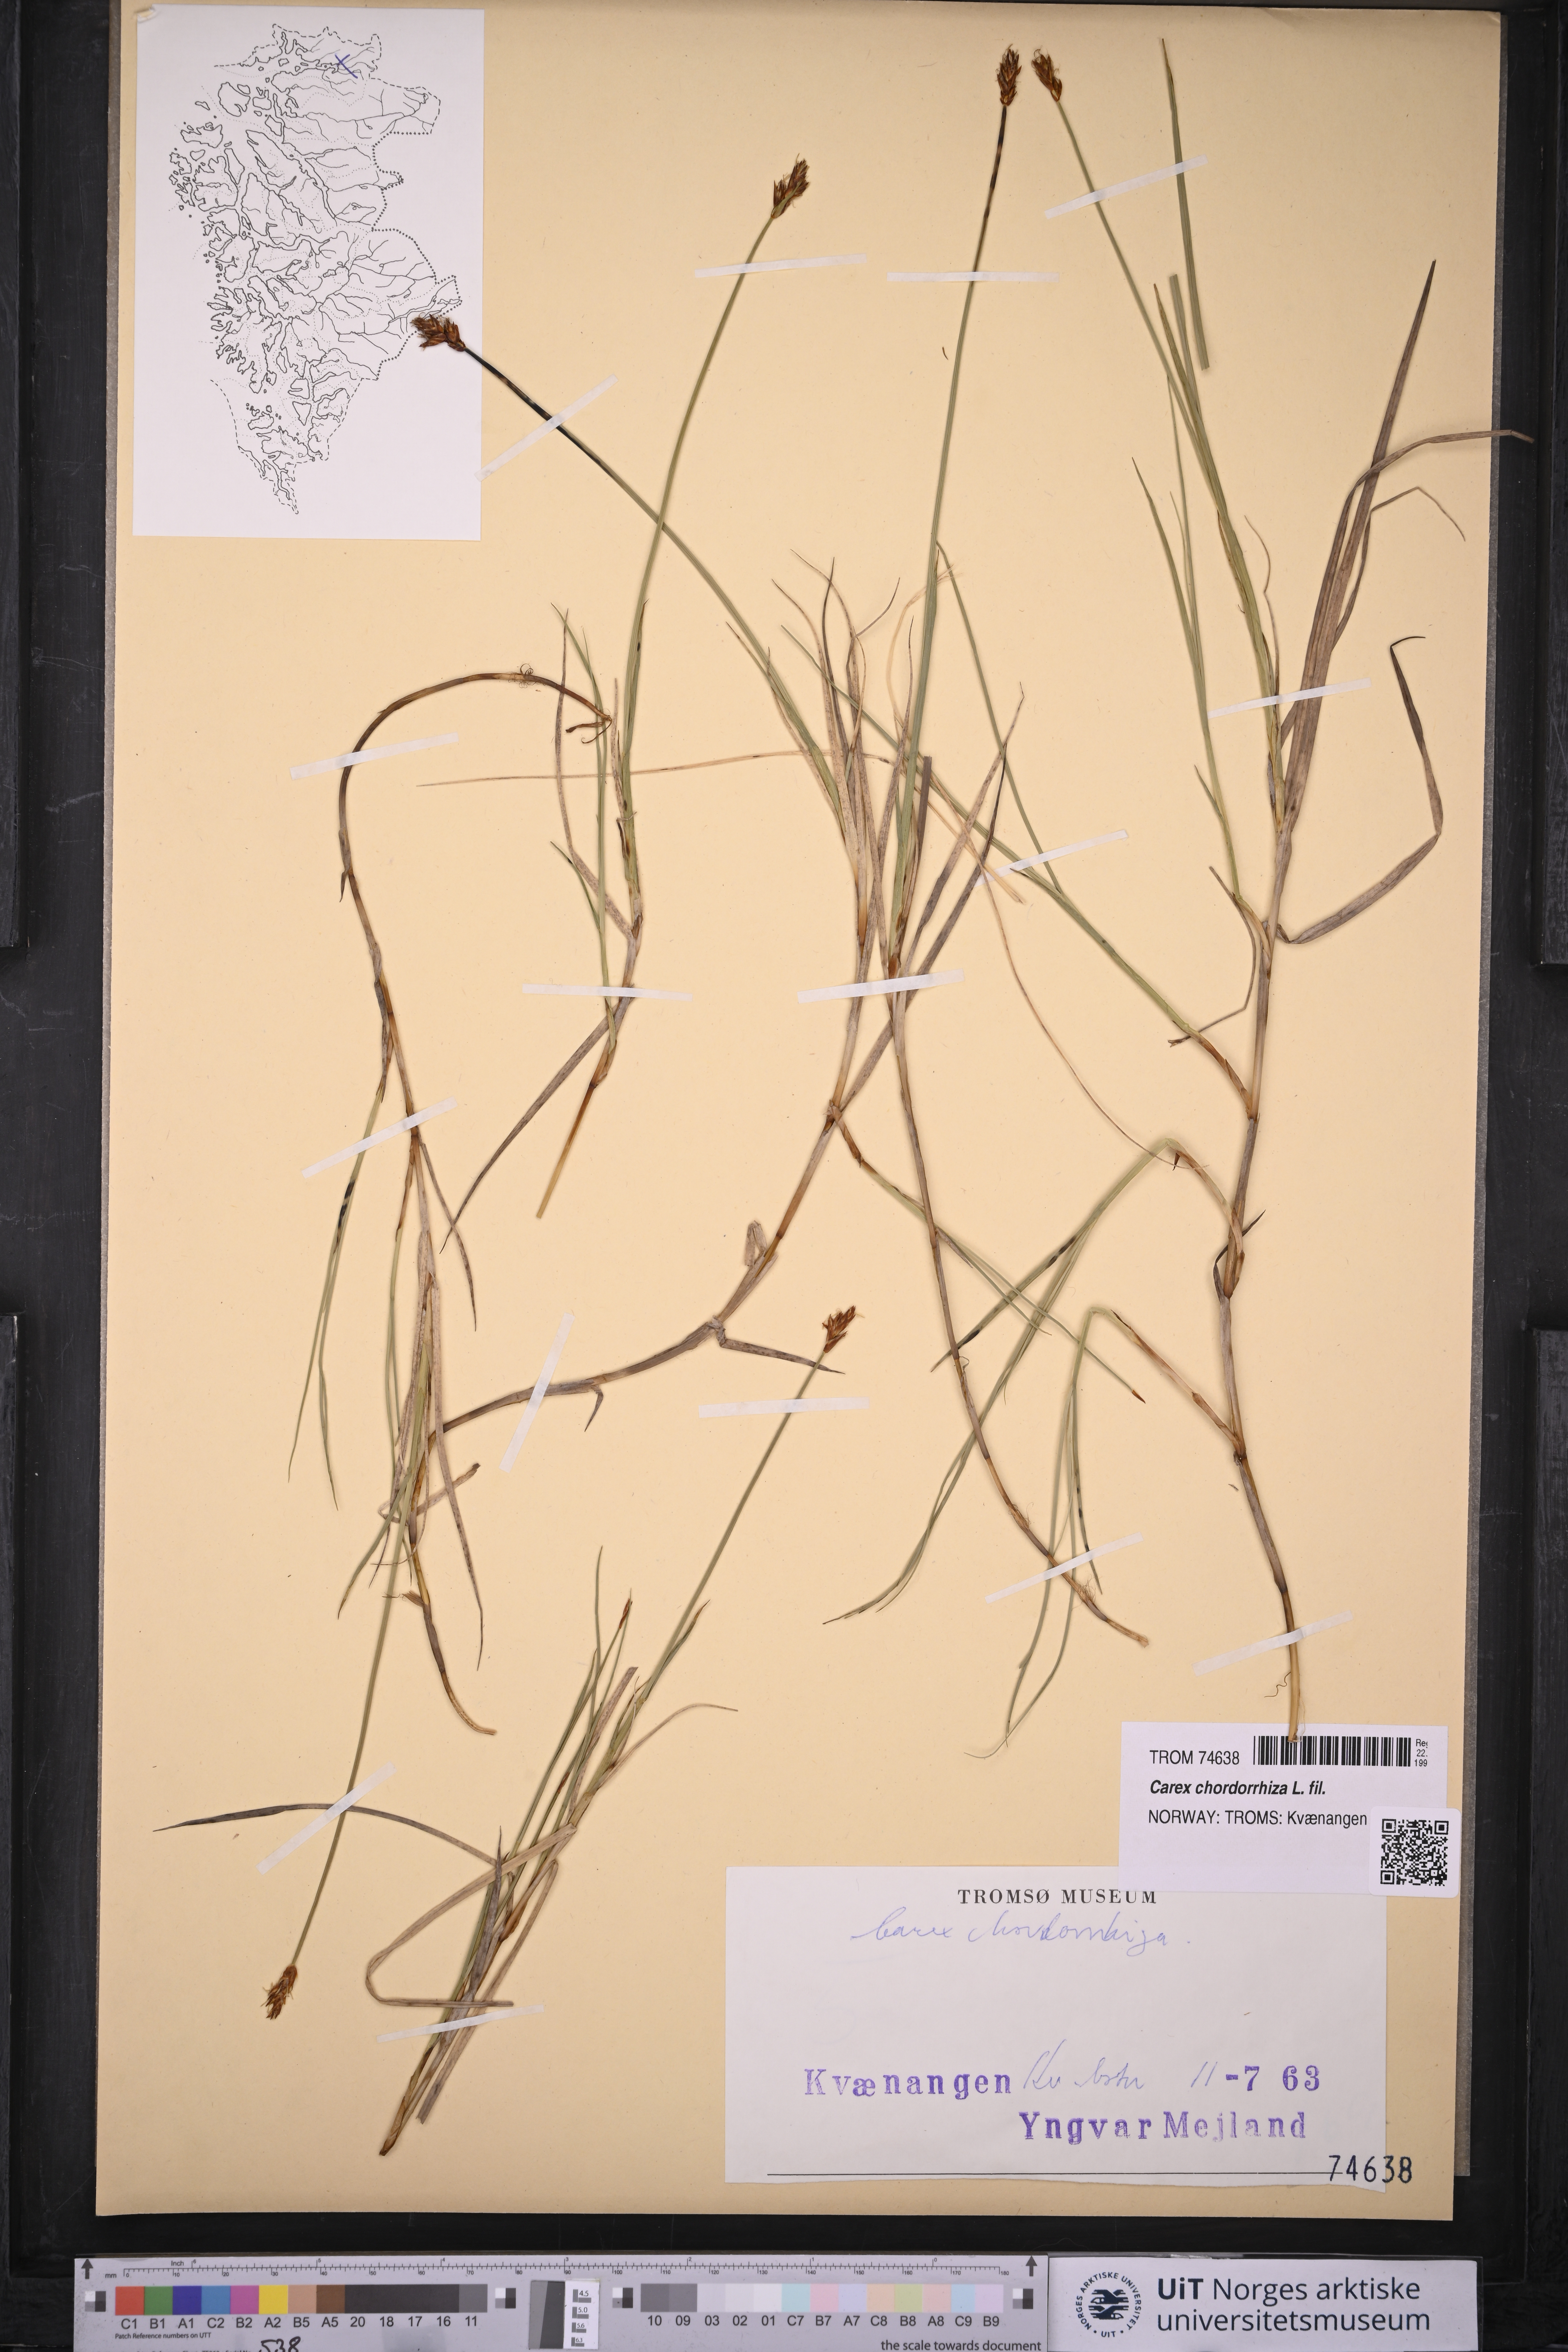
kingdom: Plantae
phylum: Tracheophyta
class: Liliopsida
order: Poales
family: Cyperaceae
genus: Carex
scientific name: Carex chordorrhiza
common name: String sedge
